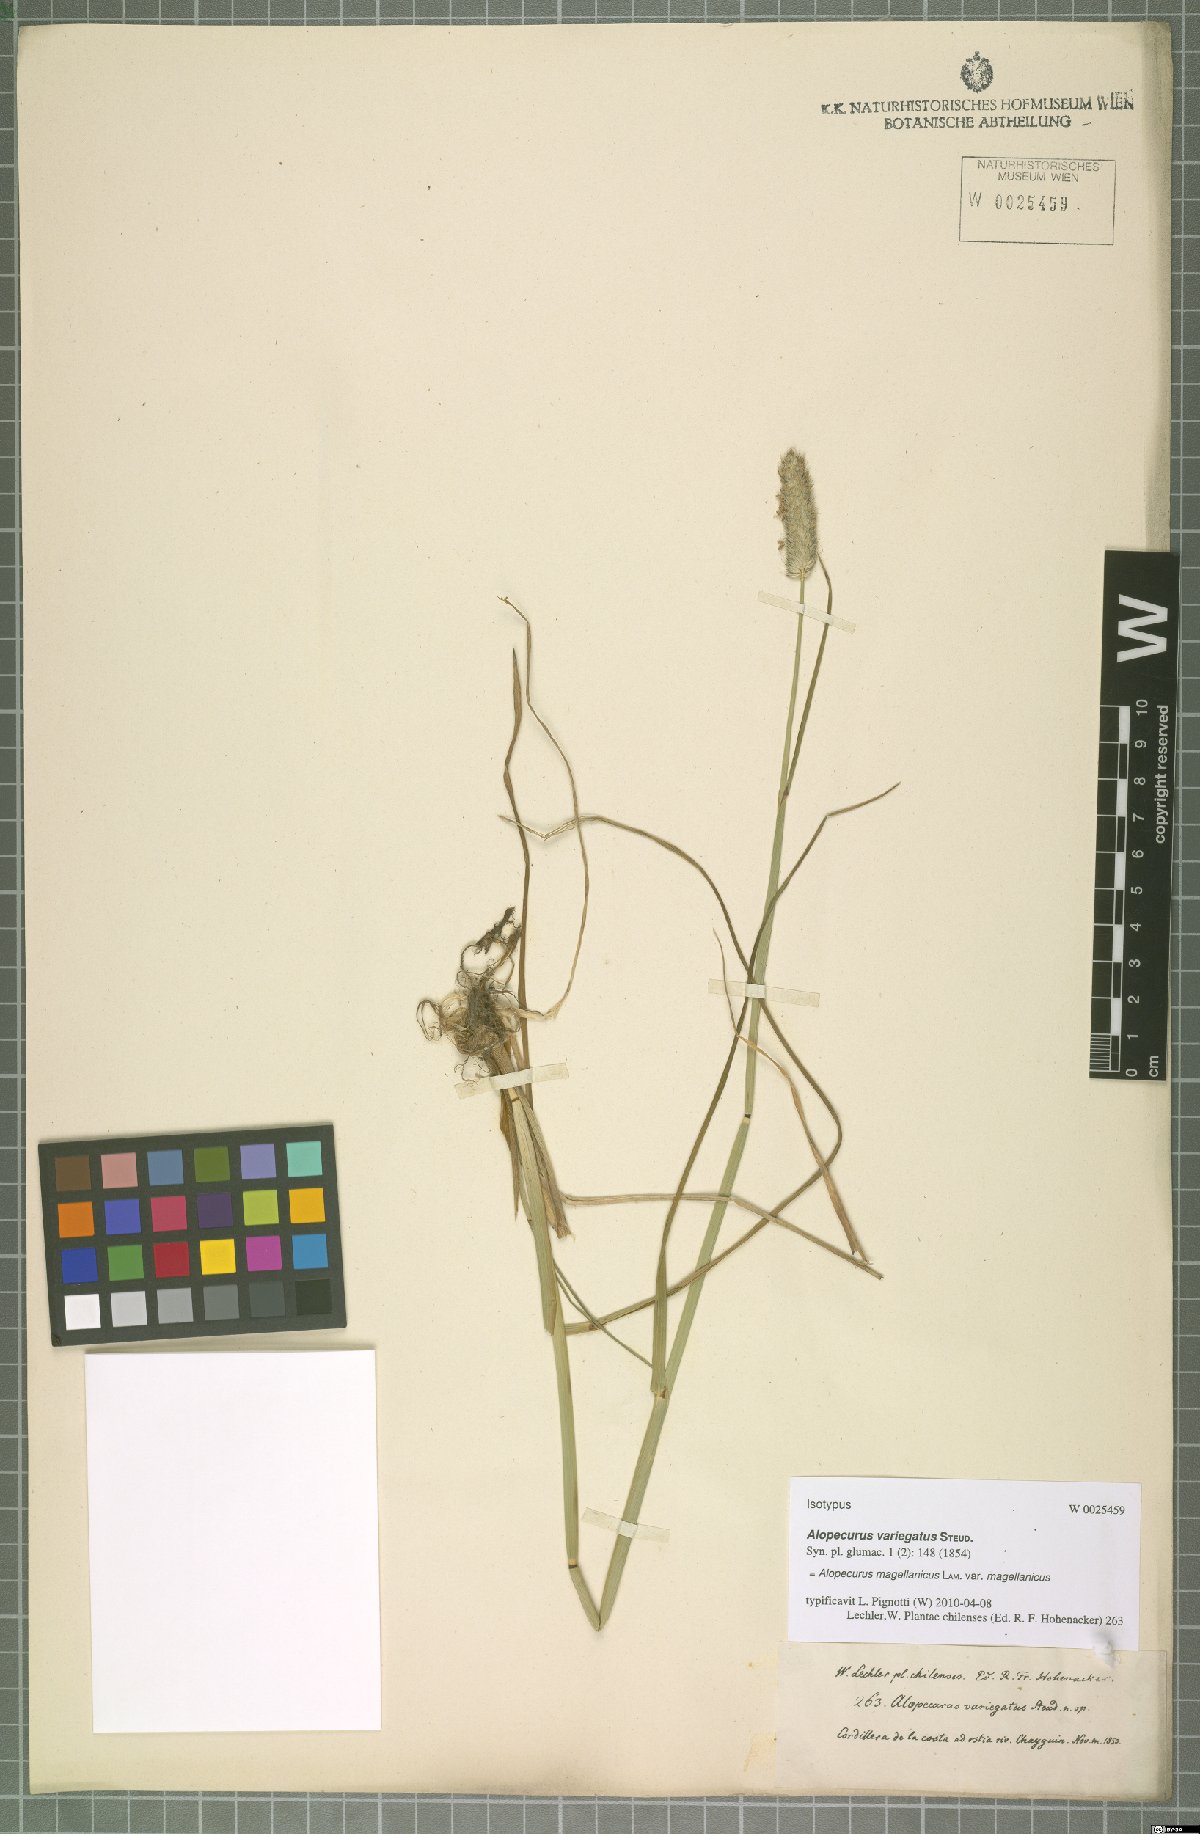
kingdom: Plantae
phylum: Tracheophyta
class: Liliopsida
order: Poales
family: Poaceae
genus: Alopecurus
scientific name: Alopecurus magellanicus
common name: Alpine foxtail
